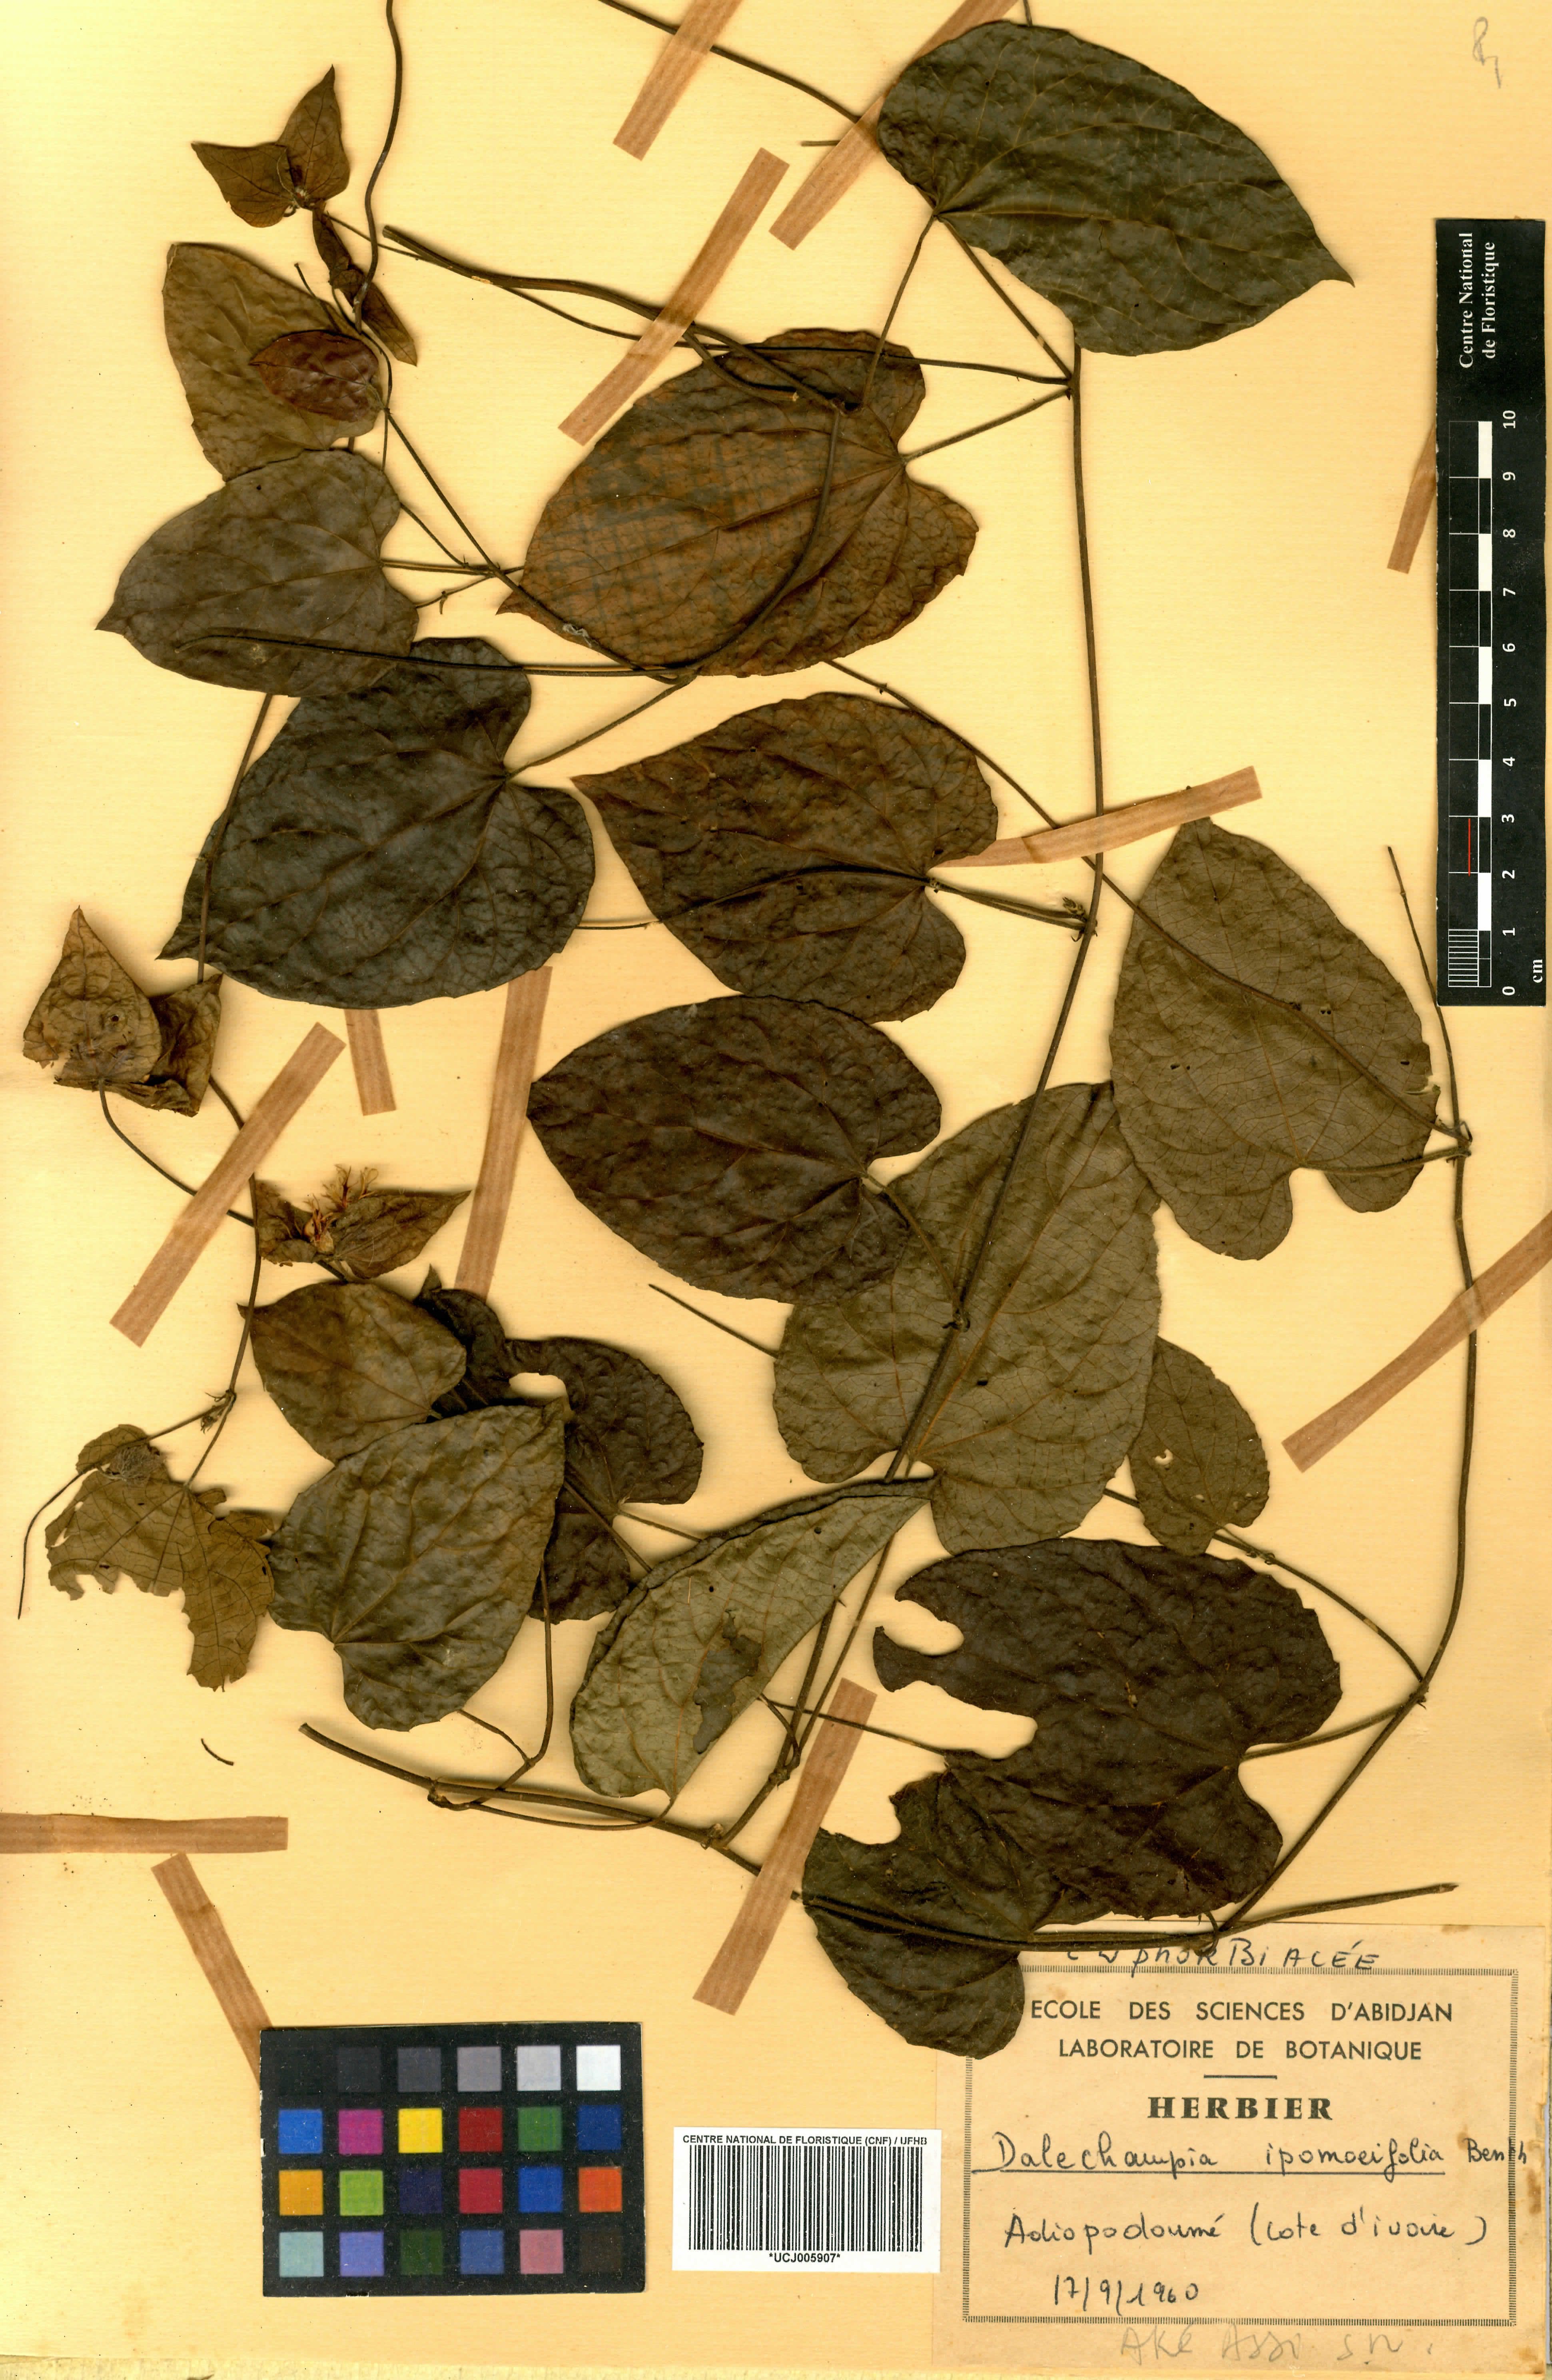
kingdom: Plantae
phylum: Tracheophyta
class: Magnoliopsida
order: Malpighiales
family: Euphorbiaceae
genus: Dalechampia
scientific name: Dalechampia ipomoeifolia
